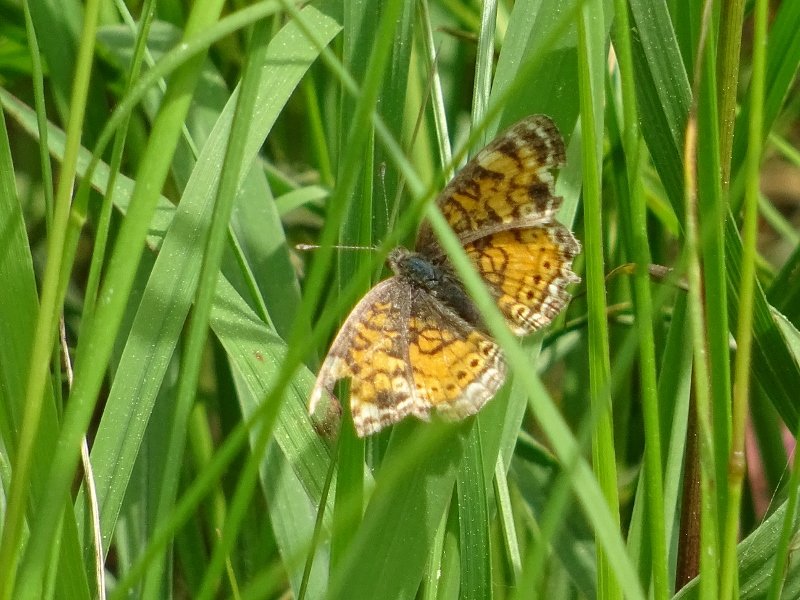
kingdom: Animalia
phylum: Arthropoda
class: Insecta
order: Lepidoptera
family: Nymphalidae
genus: Phyciodes
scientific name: Phyciodes tharos
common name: Northern Crescent
